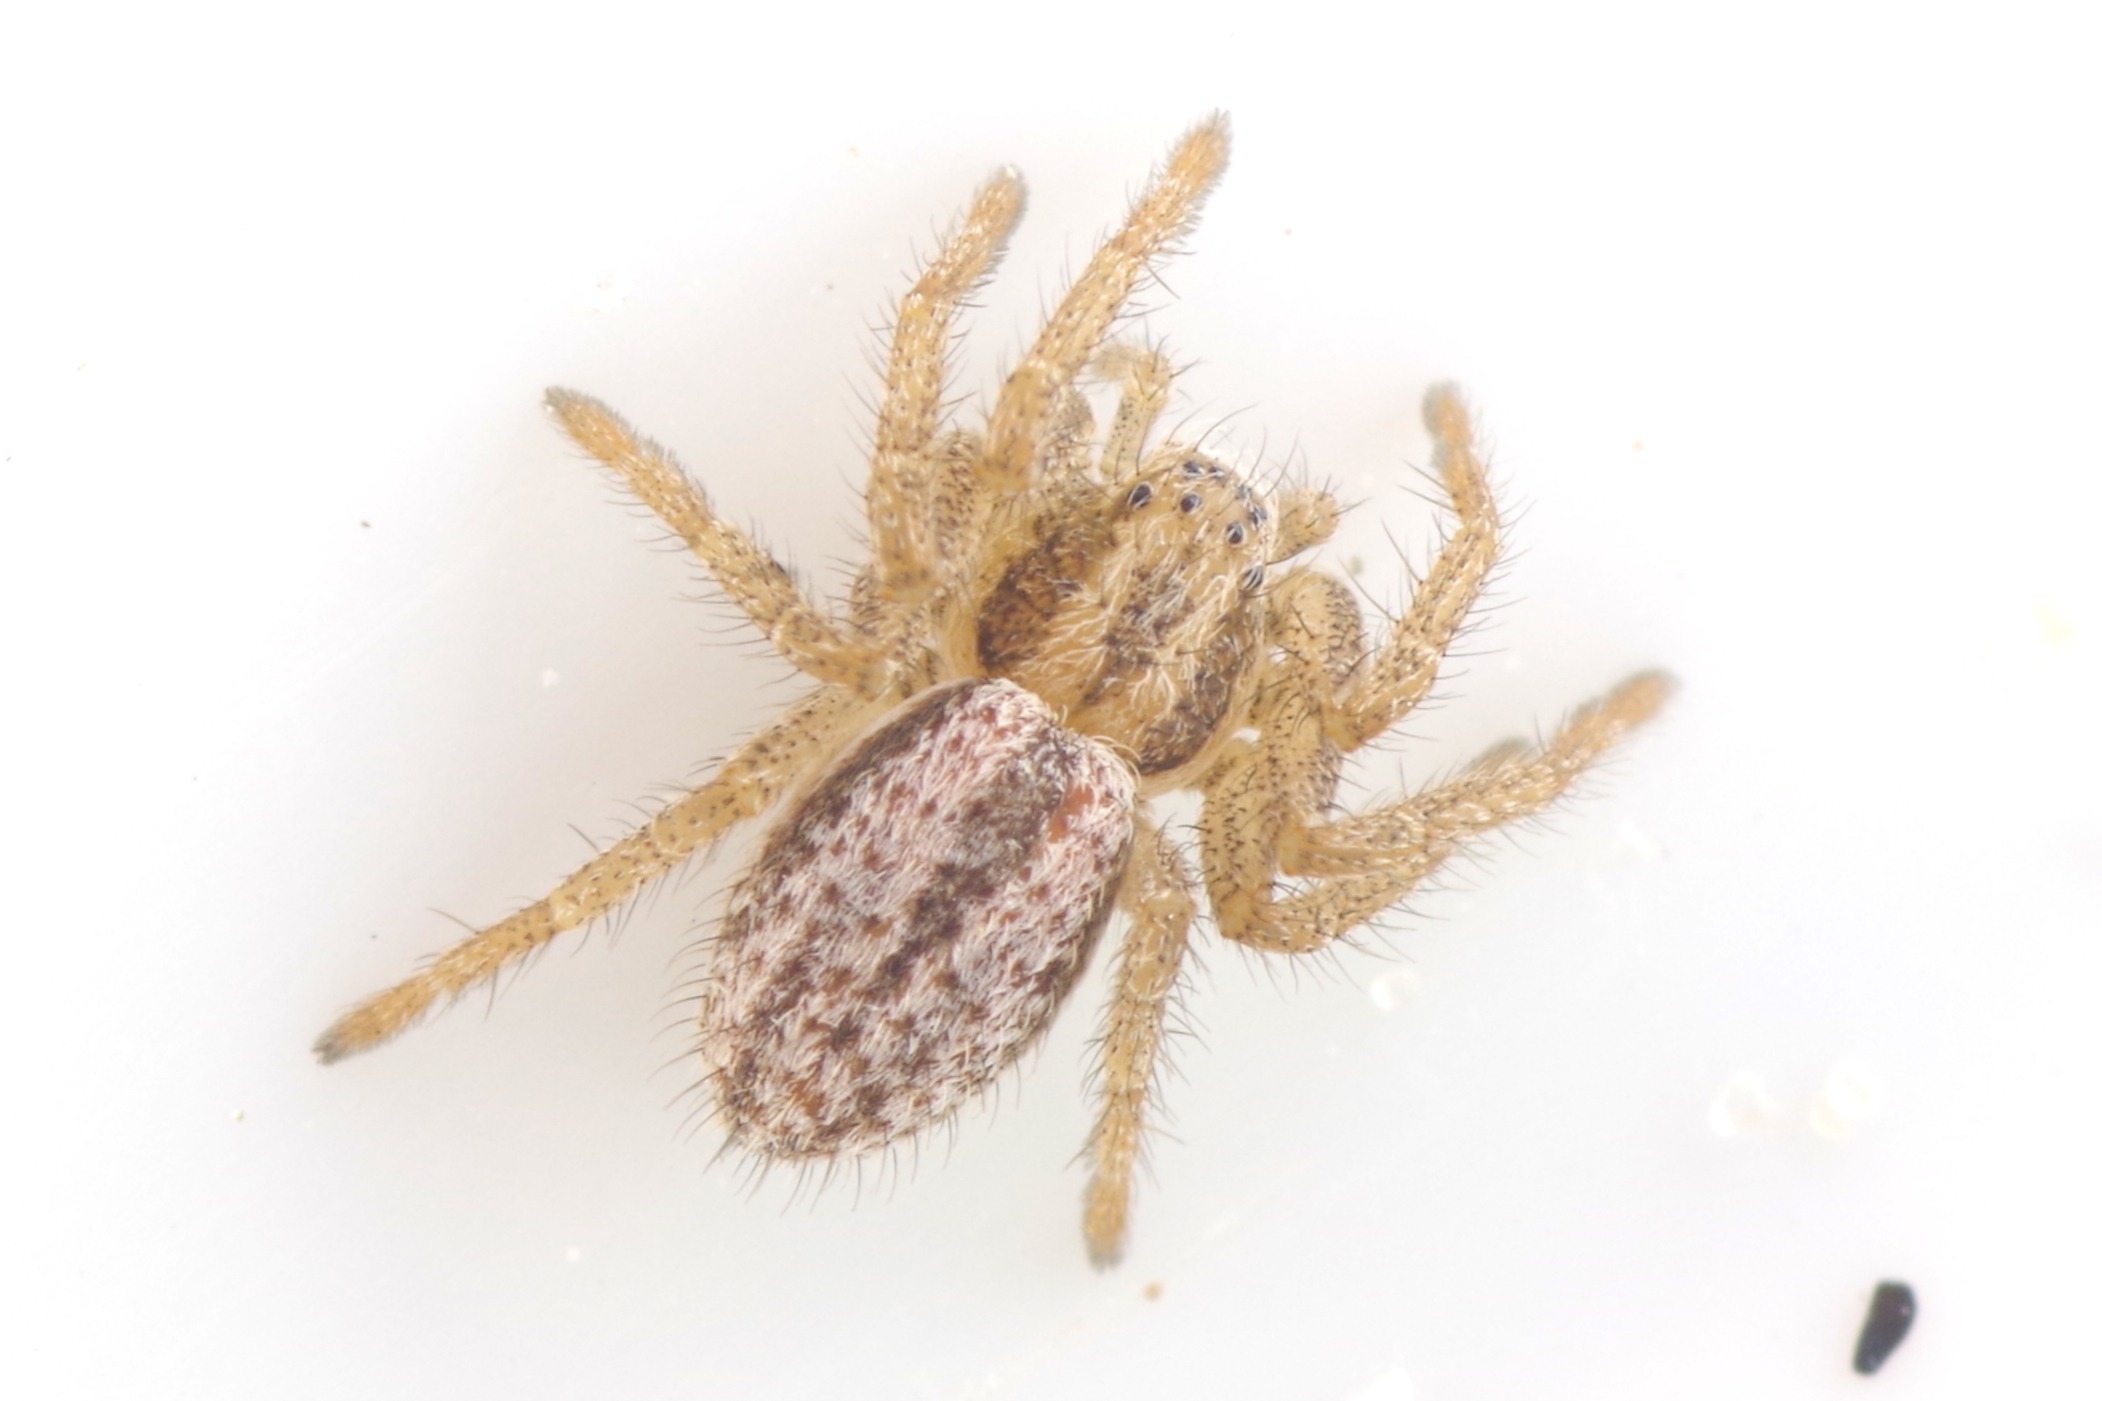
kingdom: Animalia
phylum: Arthropoda
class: Arachnida
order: Araneae
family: Philodromidae
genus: Thanatus
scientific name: Thanatus striatus
